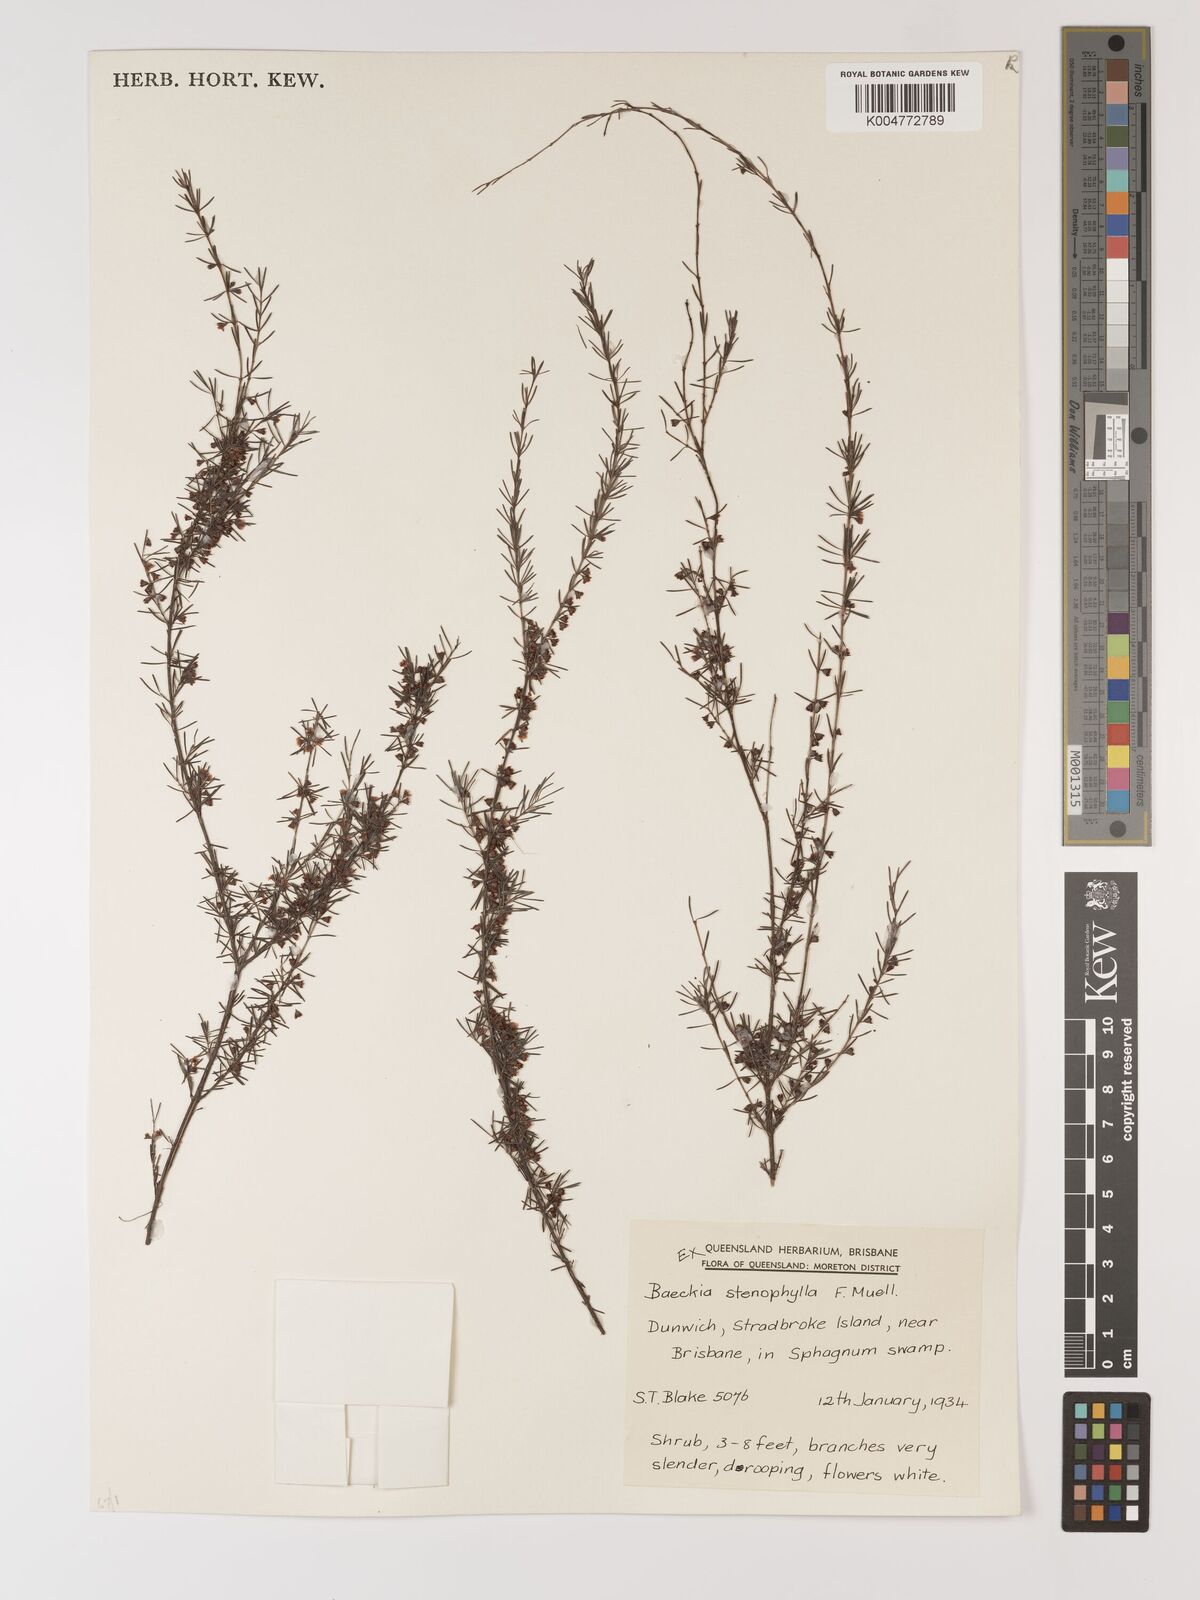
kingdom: Plantae
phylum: Tracheophyta
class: Magnoliopsida
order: Myrtales
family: Myrtaceae
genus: Baeckea
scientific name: Baeckea frutescens
